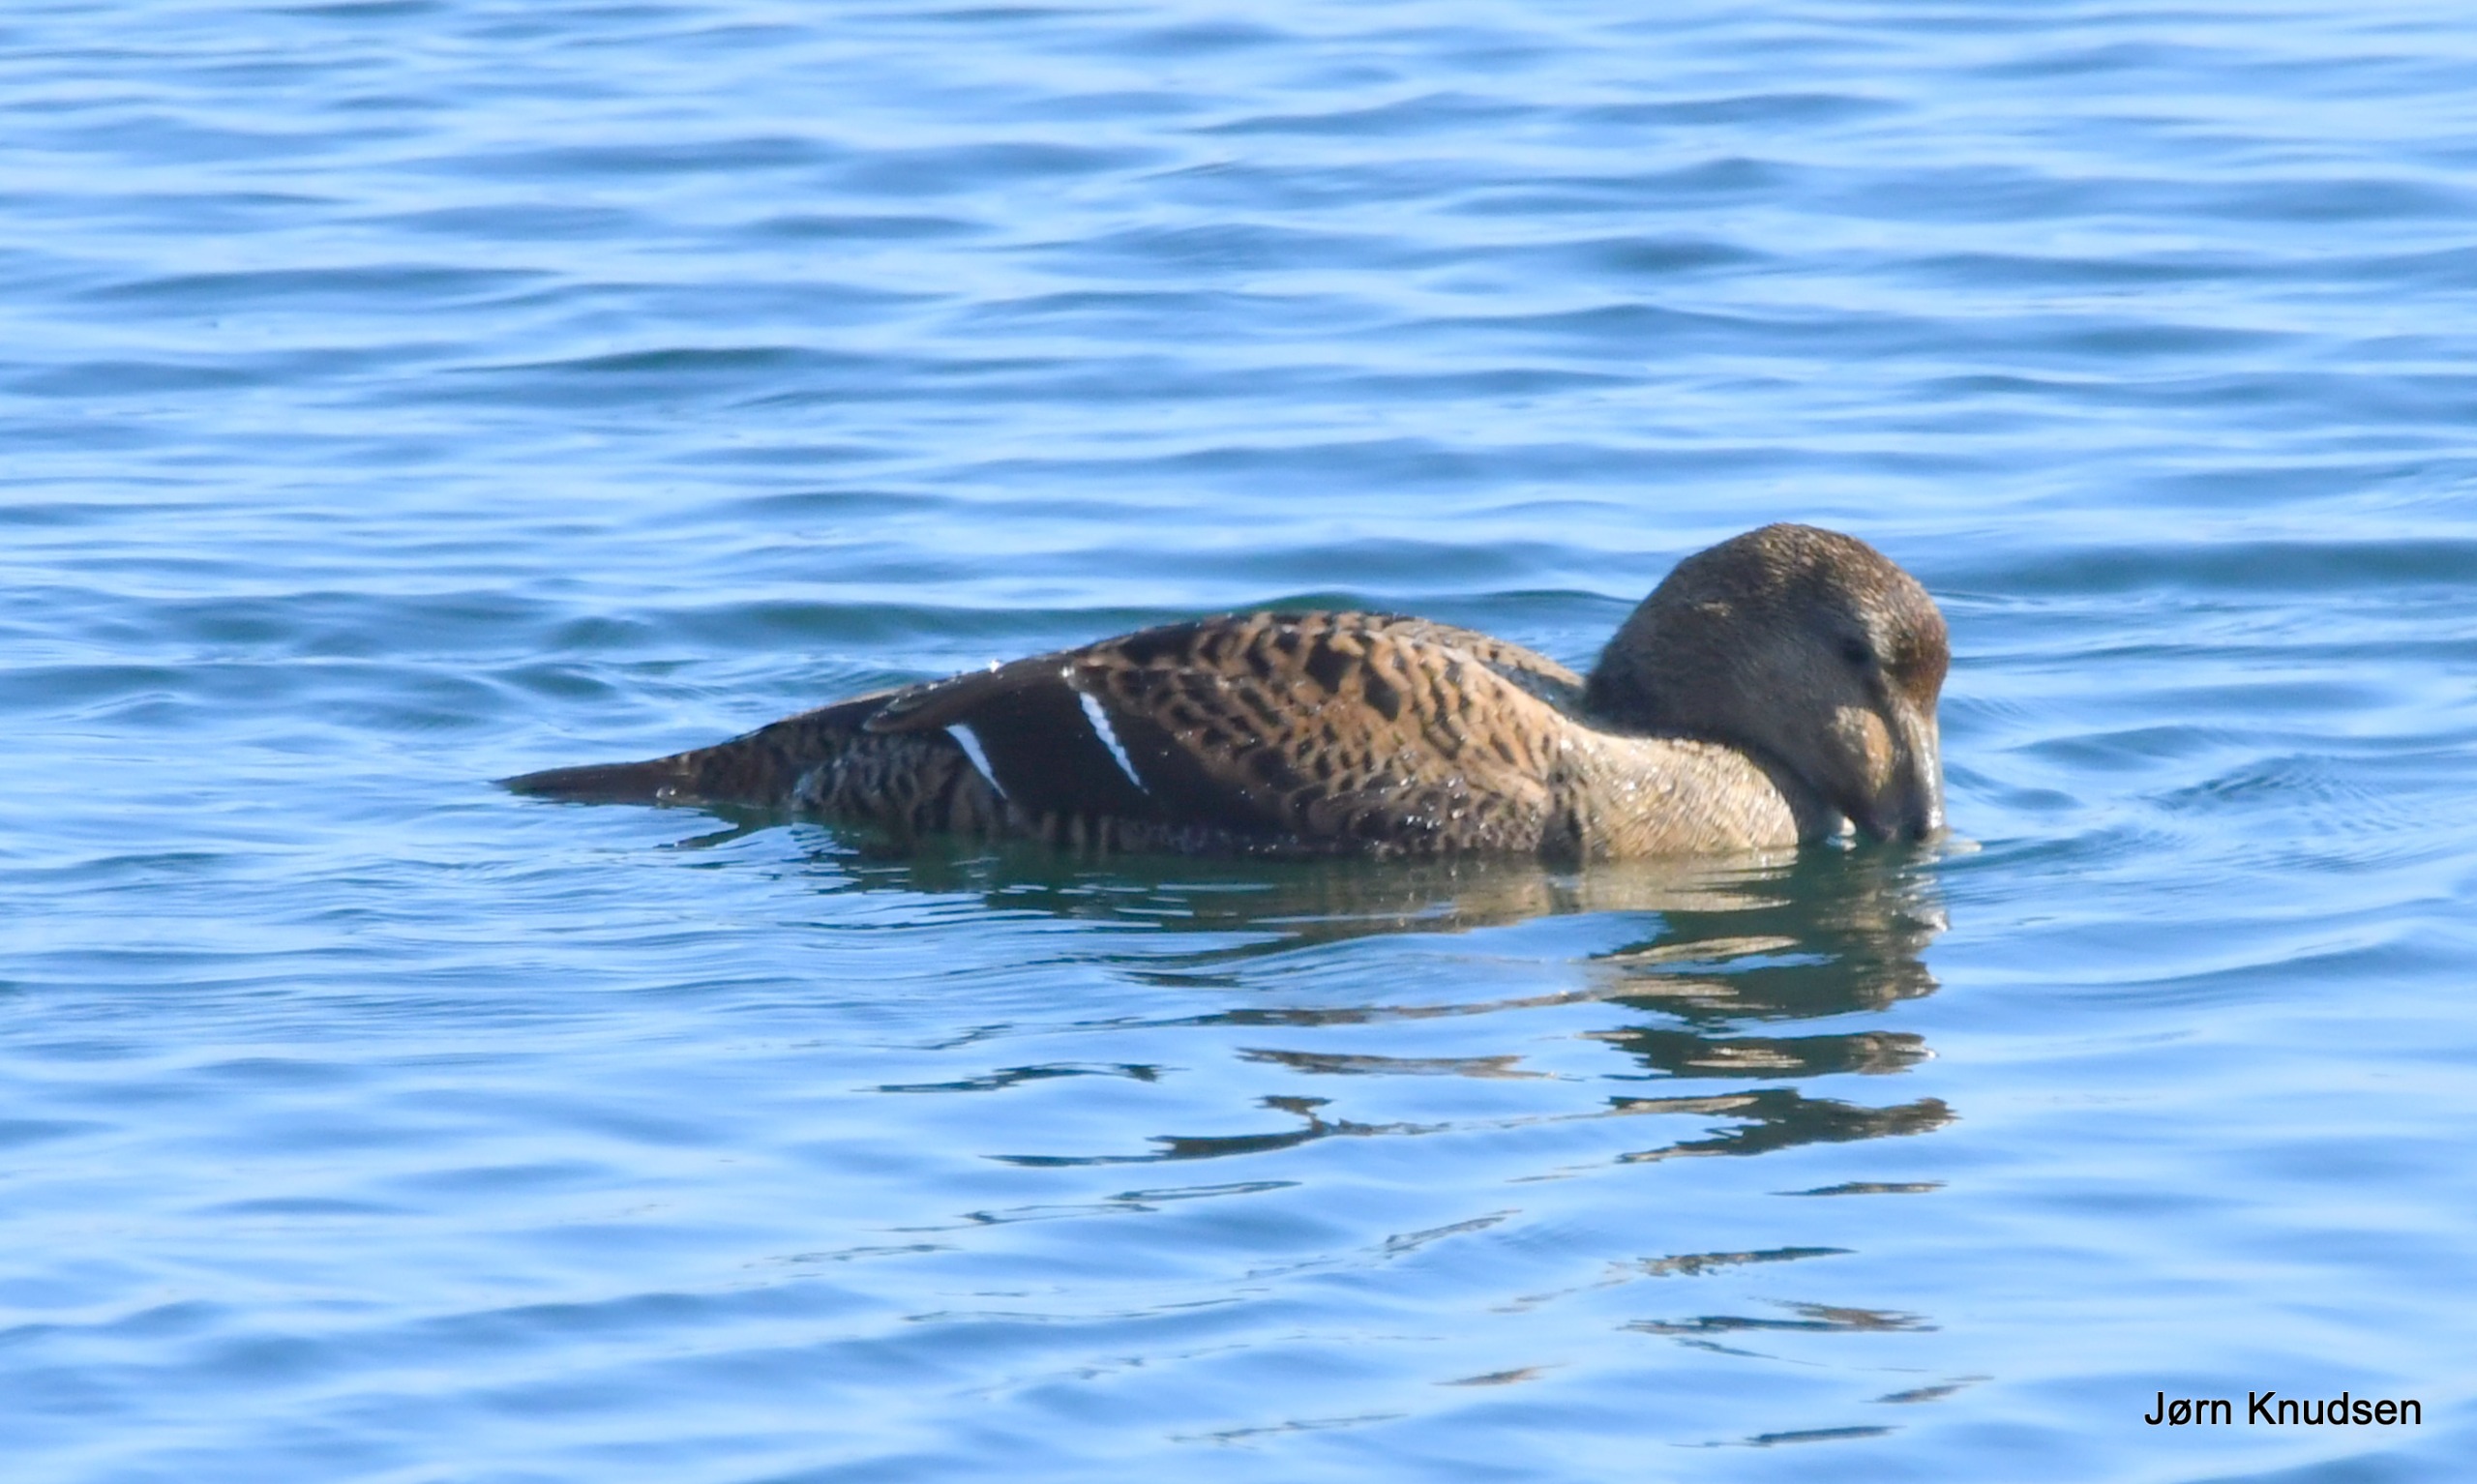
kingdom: Animalia
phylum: Chordata
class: Aves
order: Anseriformes
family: Anatidae
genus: Somateria
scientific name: Somateria mollissima
